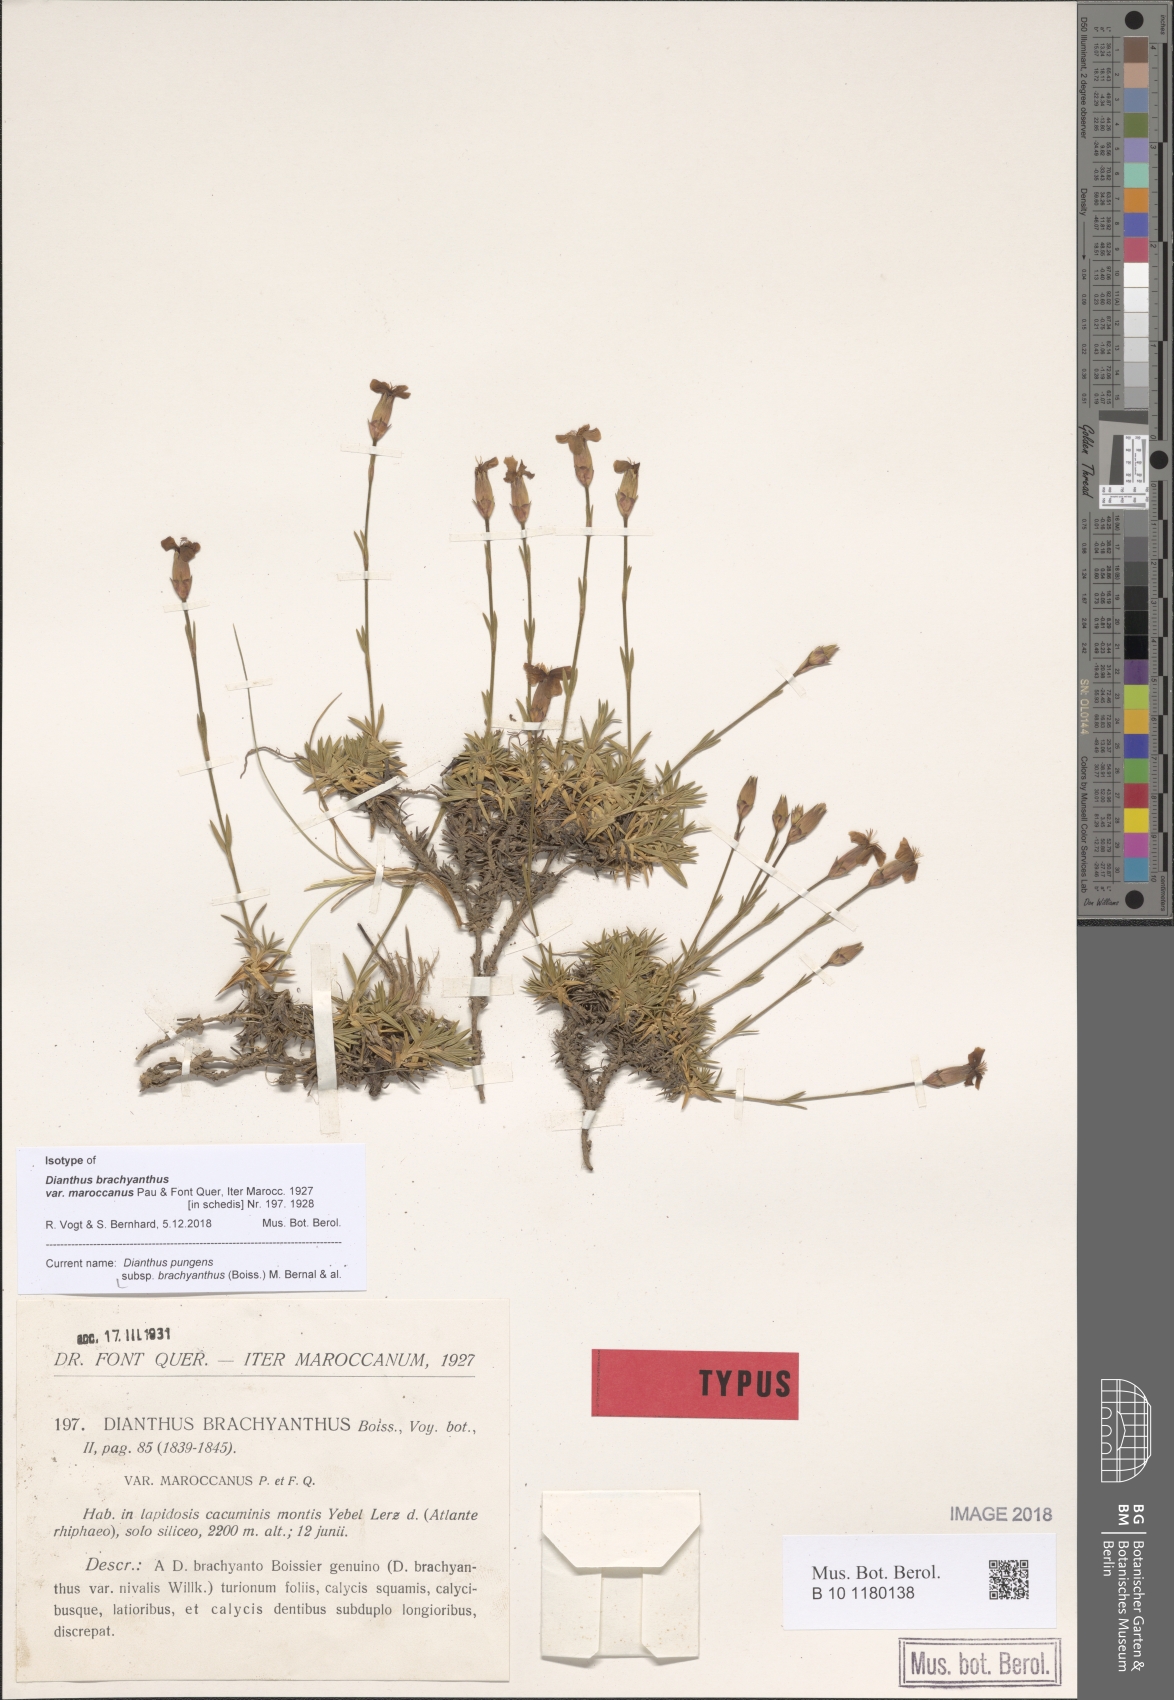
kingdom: Plantae
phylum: Tracheophyta
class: Magnoliopsida
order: Caryophyllales
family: Caryophyllaceae
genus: Dianthus
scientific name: Dianthus pungens
